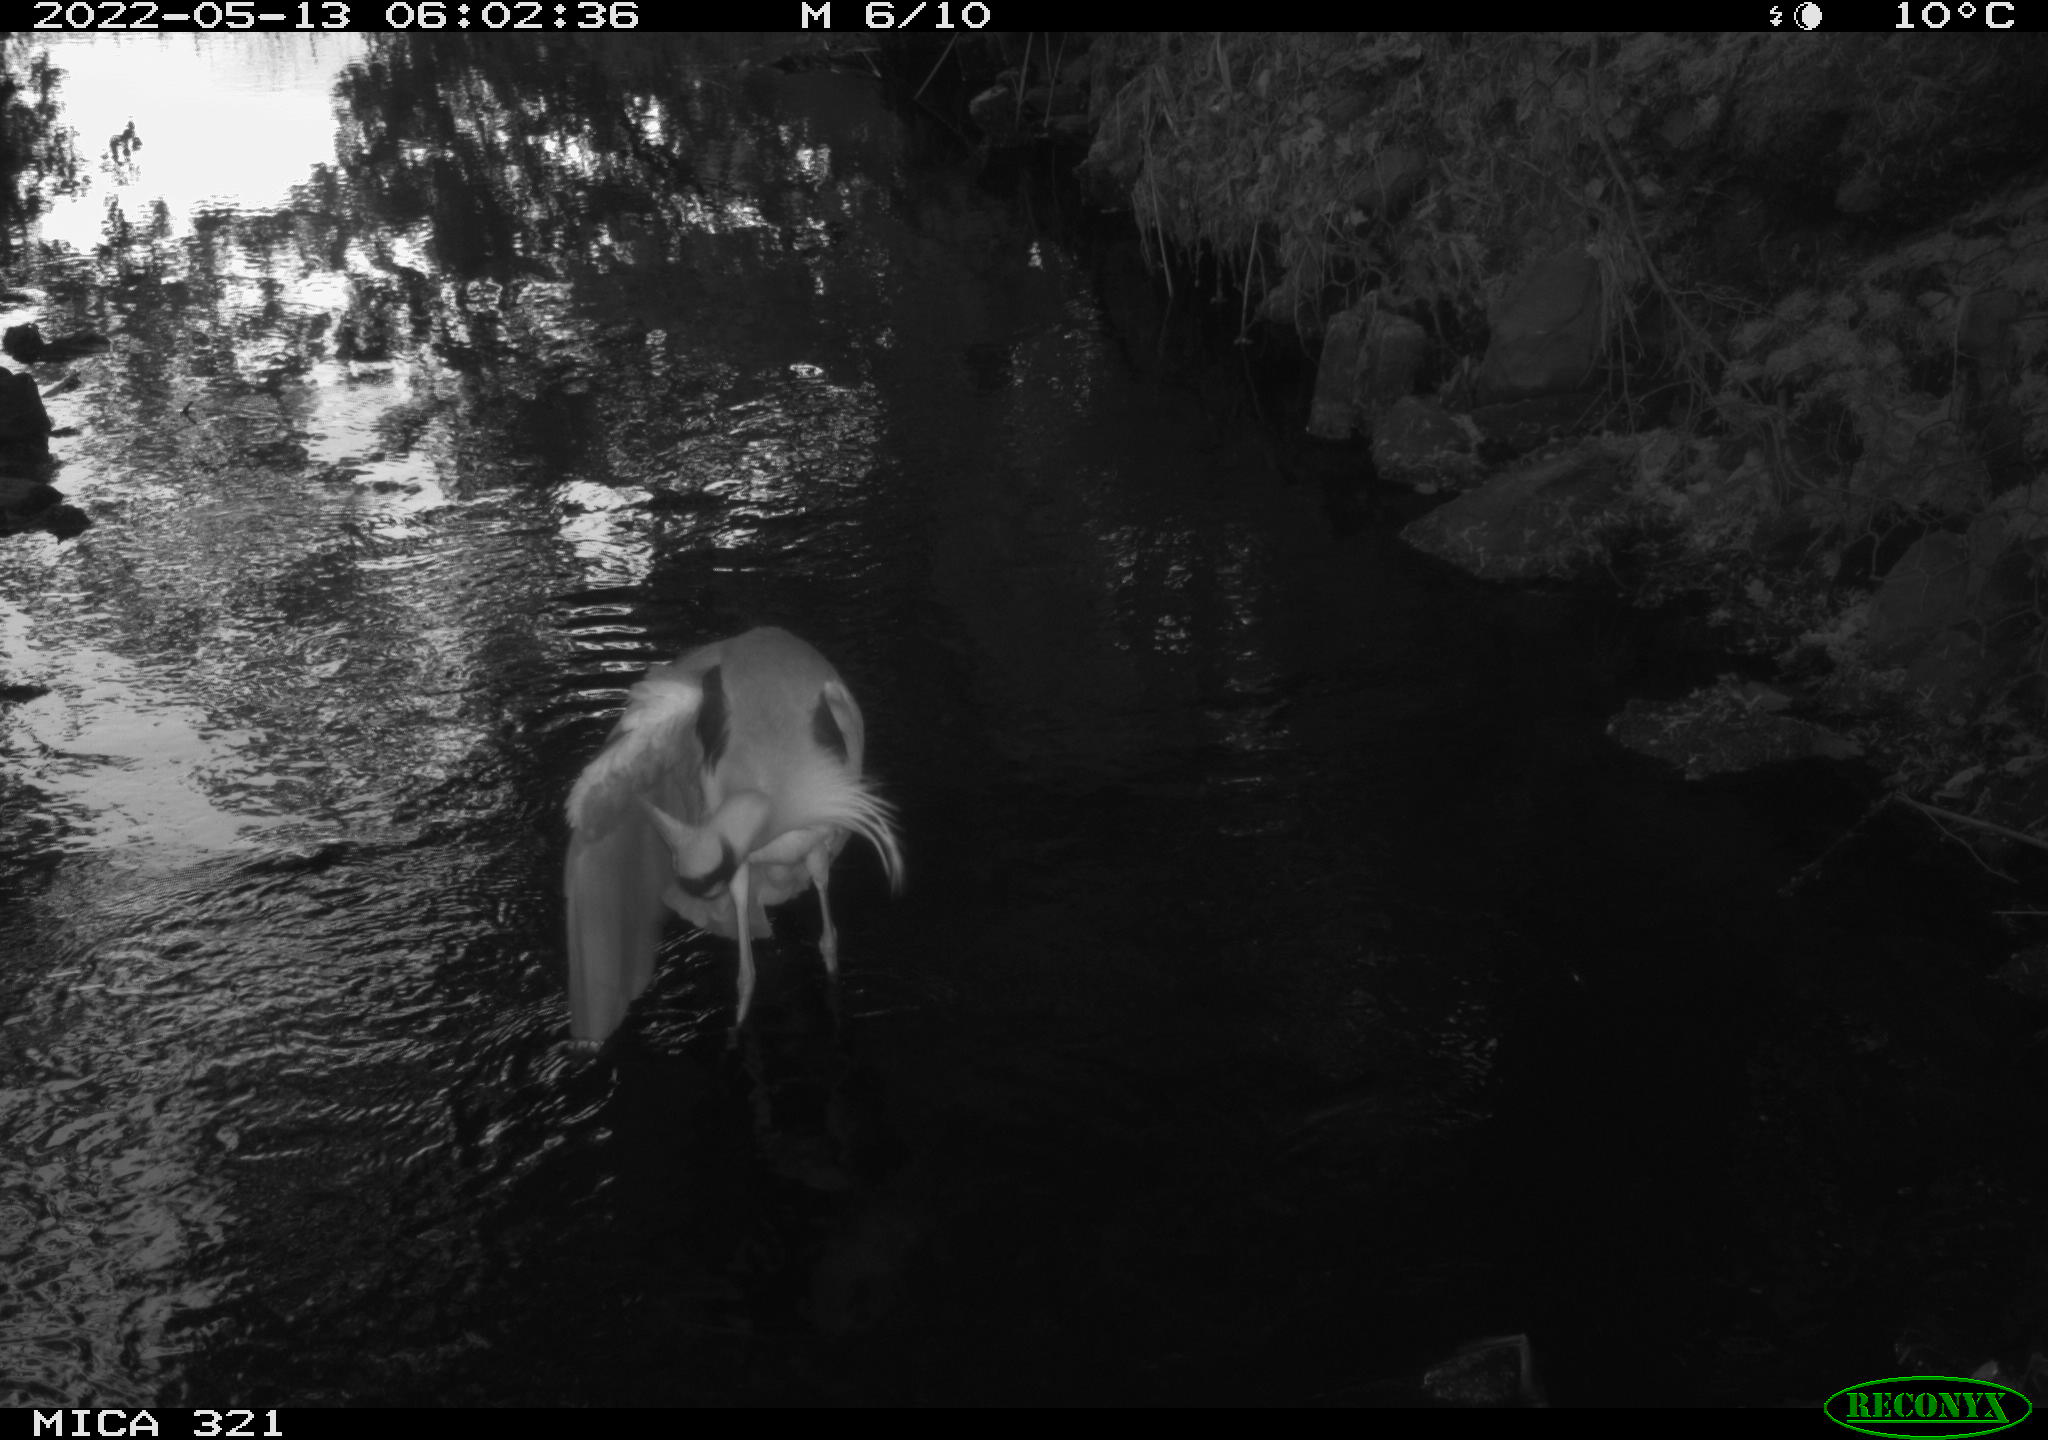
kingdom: Animalia
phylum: Chordata
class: Aves
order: Pelecaniformes
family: Ardeidae
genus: Ardea
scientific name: Ardea
